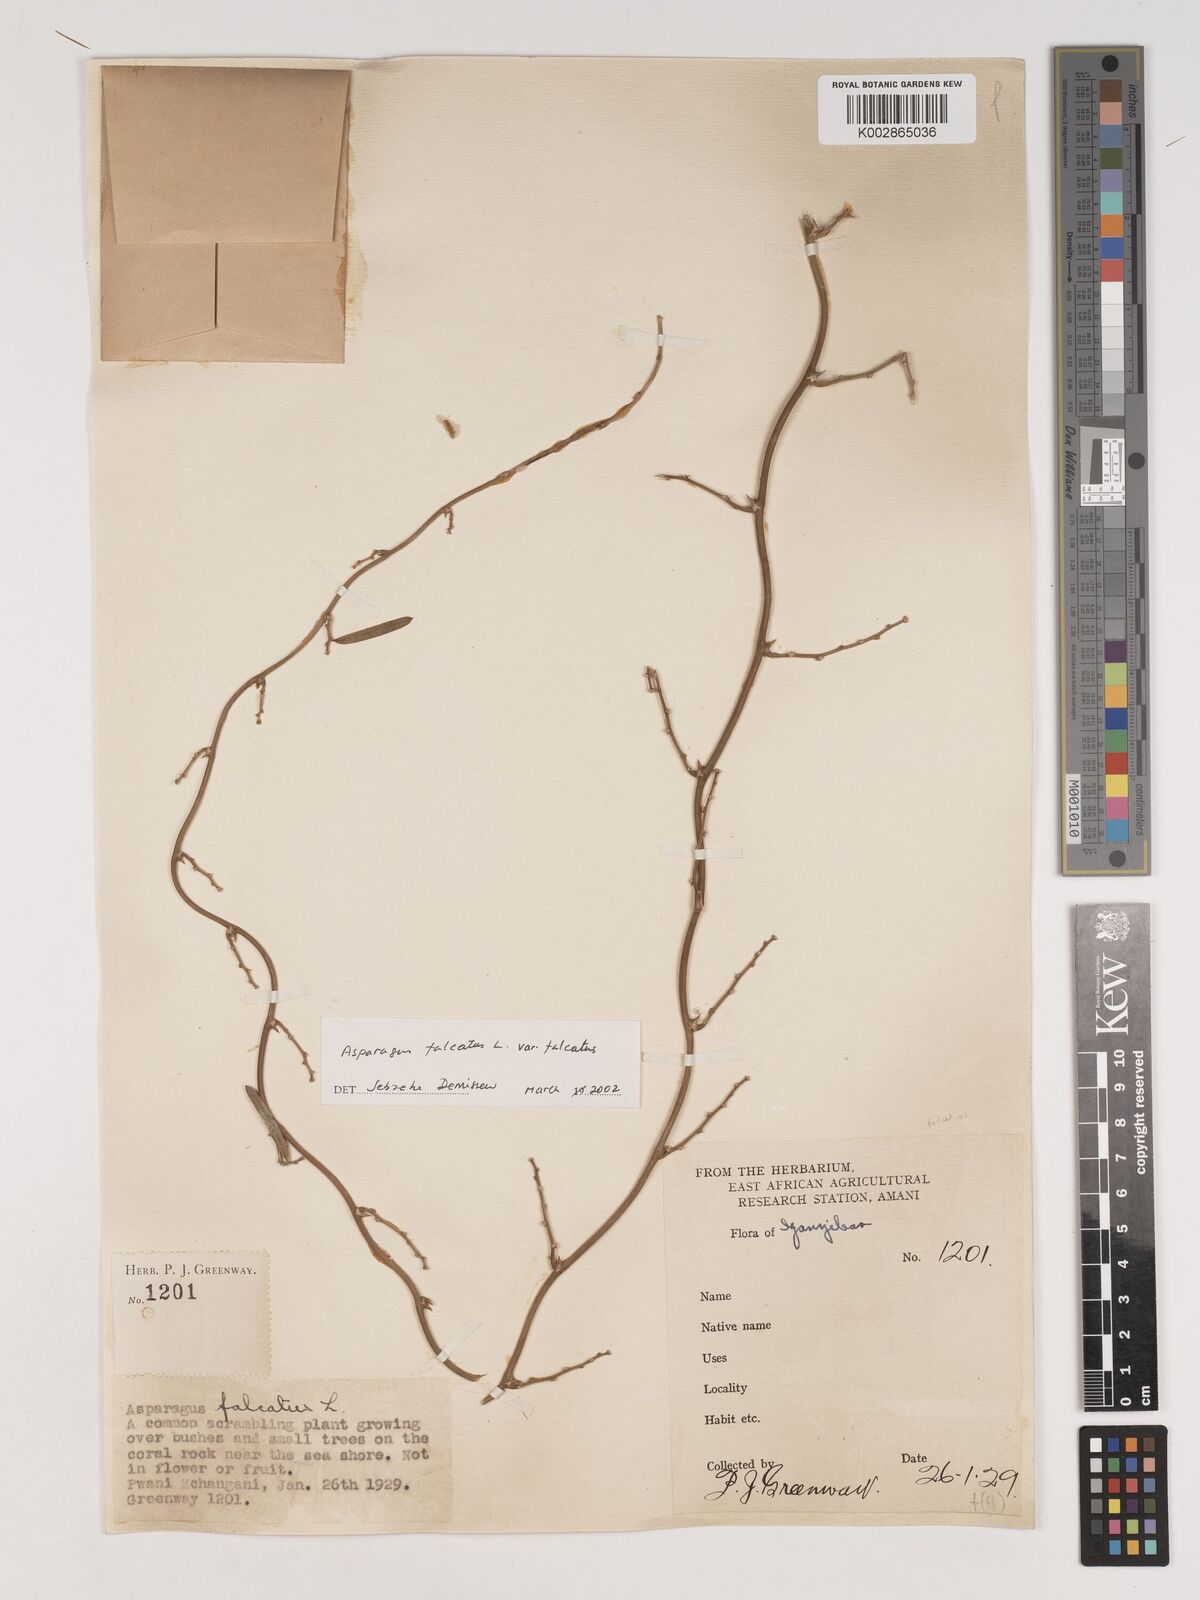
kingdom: Plantae
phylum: Tracheophyta
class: Liliopsida
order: Asparagales
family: Asparagaceae
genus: Asparagus
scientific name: Asparagus falcatus
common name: Asparagus
